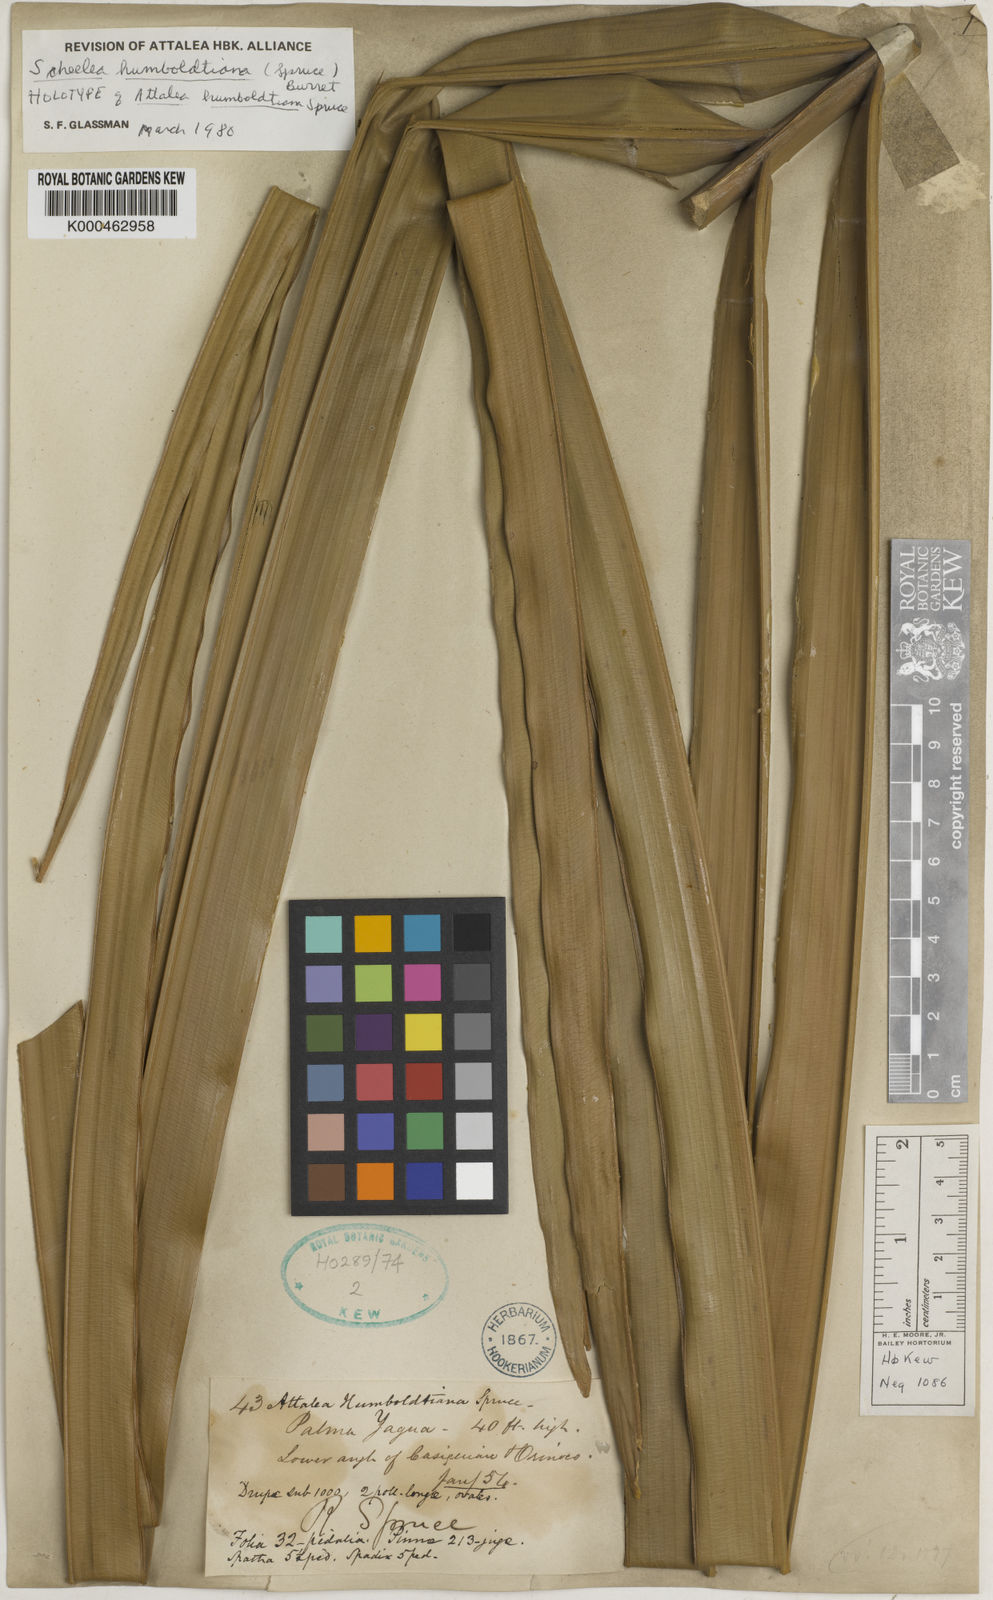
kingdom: Plantae
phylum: Tracheophyta
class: Liliopsida
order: Arecales
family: Arecaceae
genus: Attalea
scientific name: Attalea butyracea
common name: Kuakish
